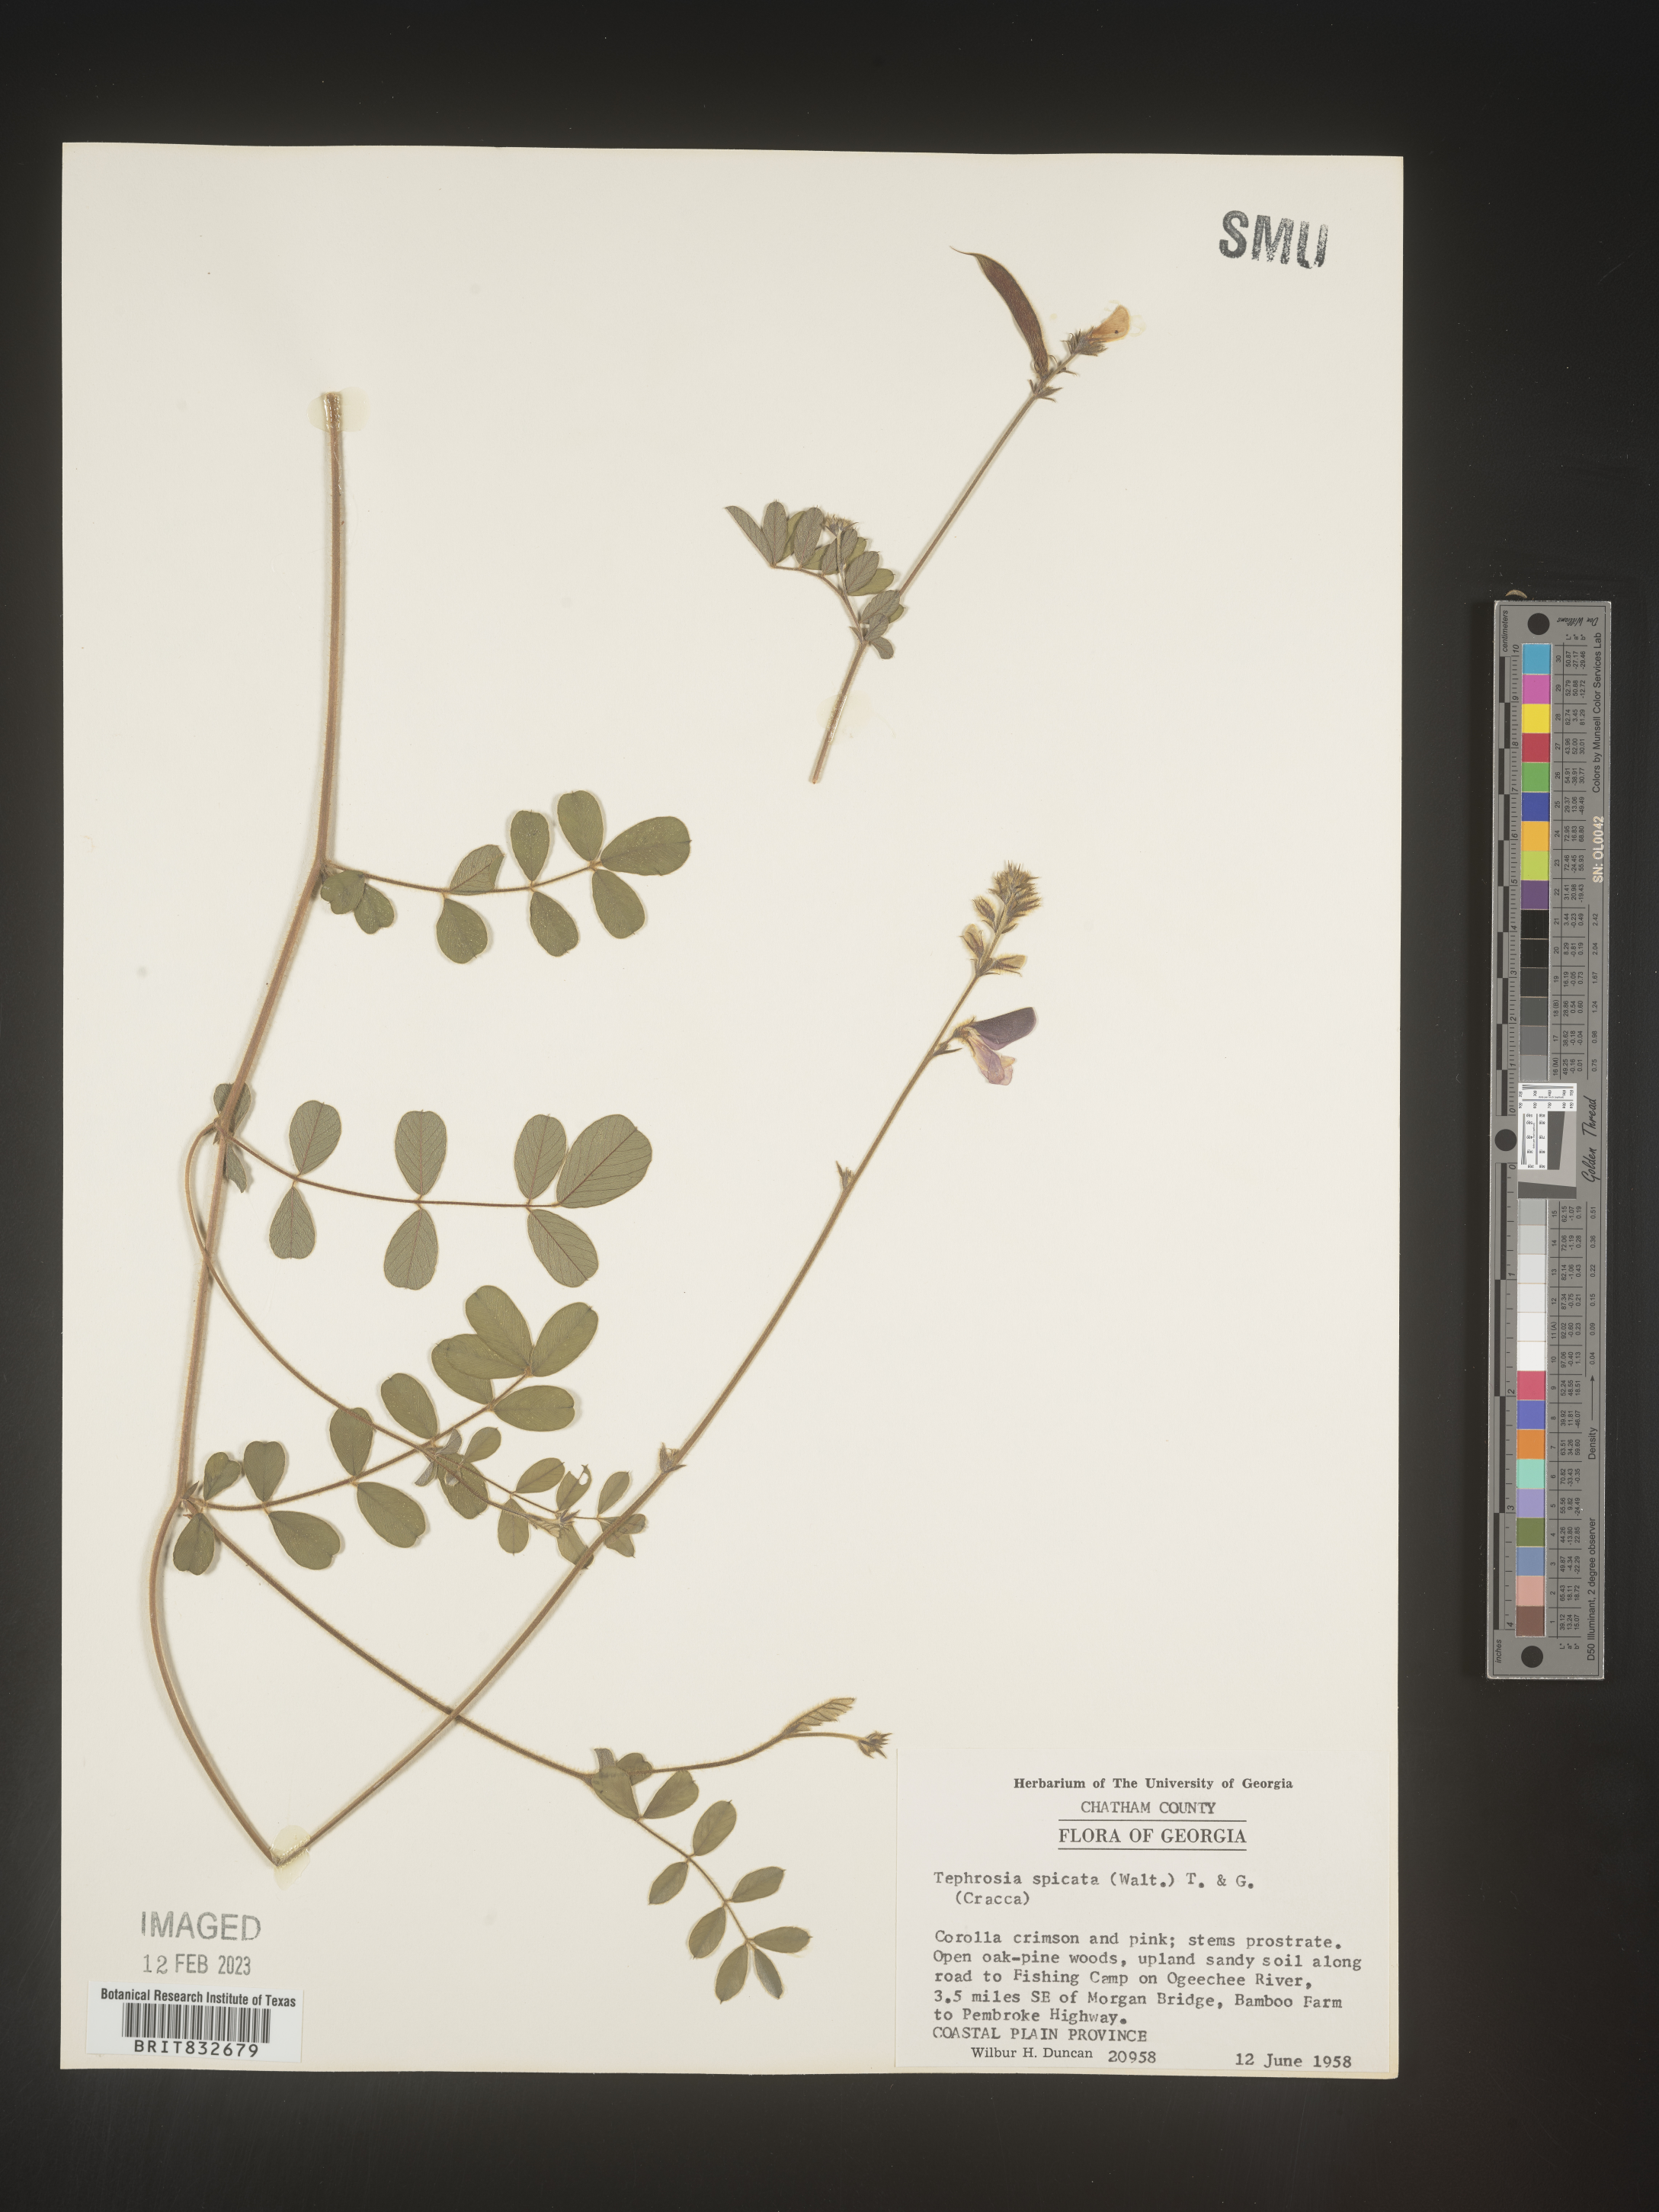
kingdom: Plantae
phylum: Tracheophyta
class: Magnoliopsida
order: Fabales
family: Fabaceae
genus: Tephrosia
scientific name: Tephrosia spicata
